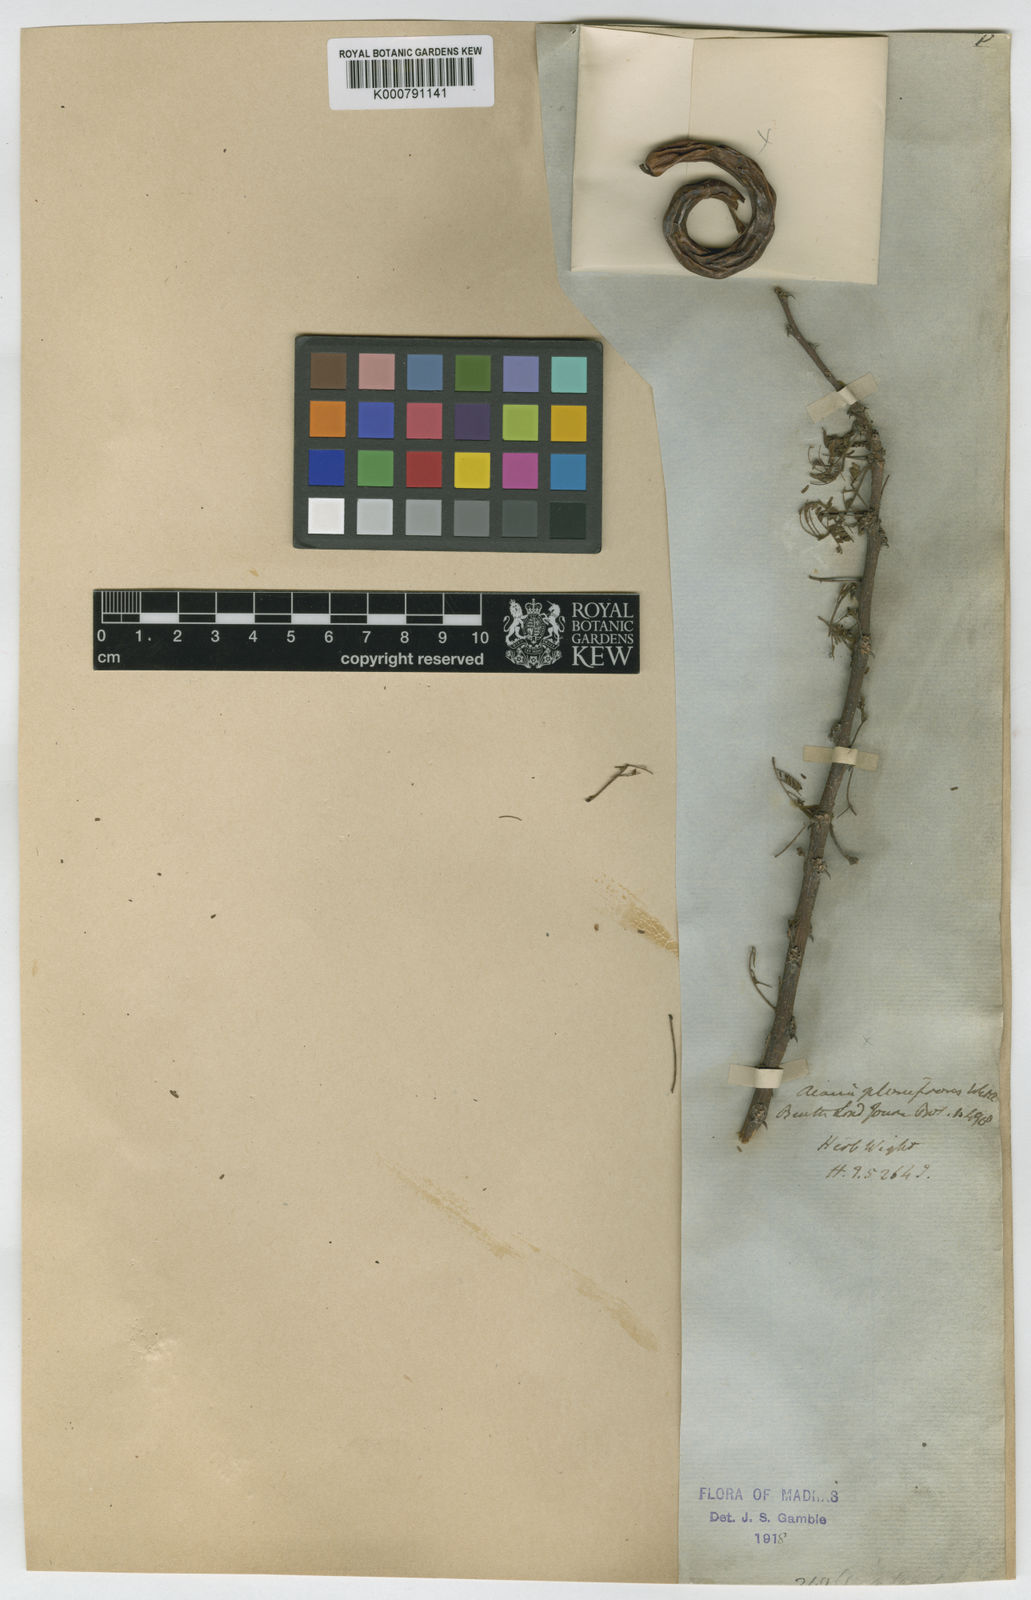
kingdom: Plantae
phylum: Tracheophyta
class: Magnoliopsida
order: Fabales
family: Fabaceae
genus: Vachellia
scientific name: Vachellia planifrons
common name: Umbrella-thorn
